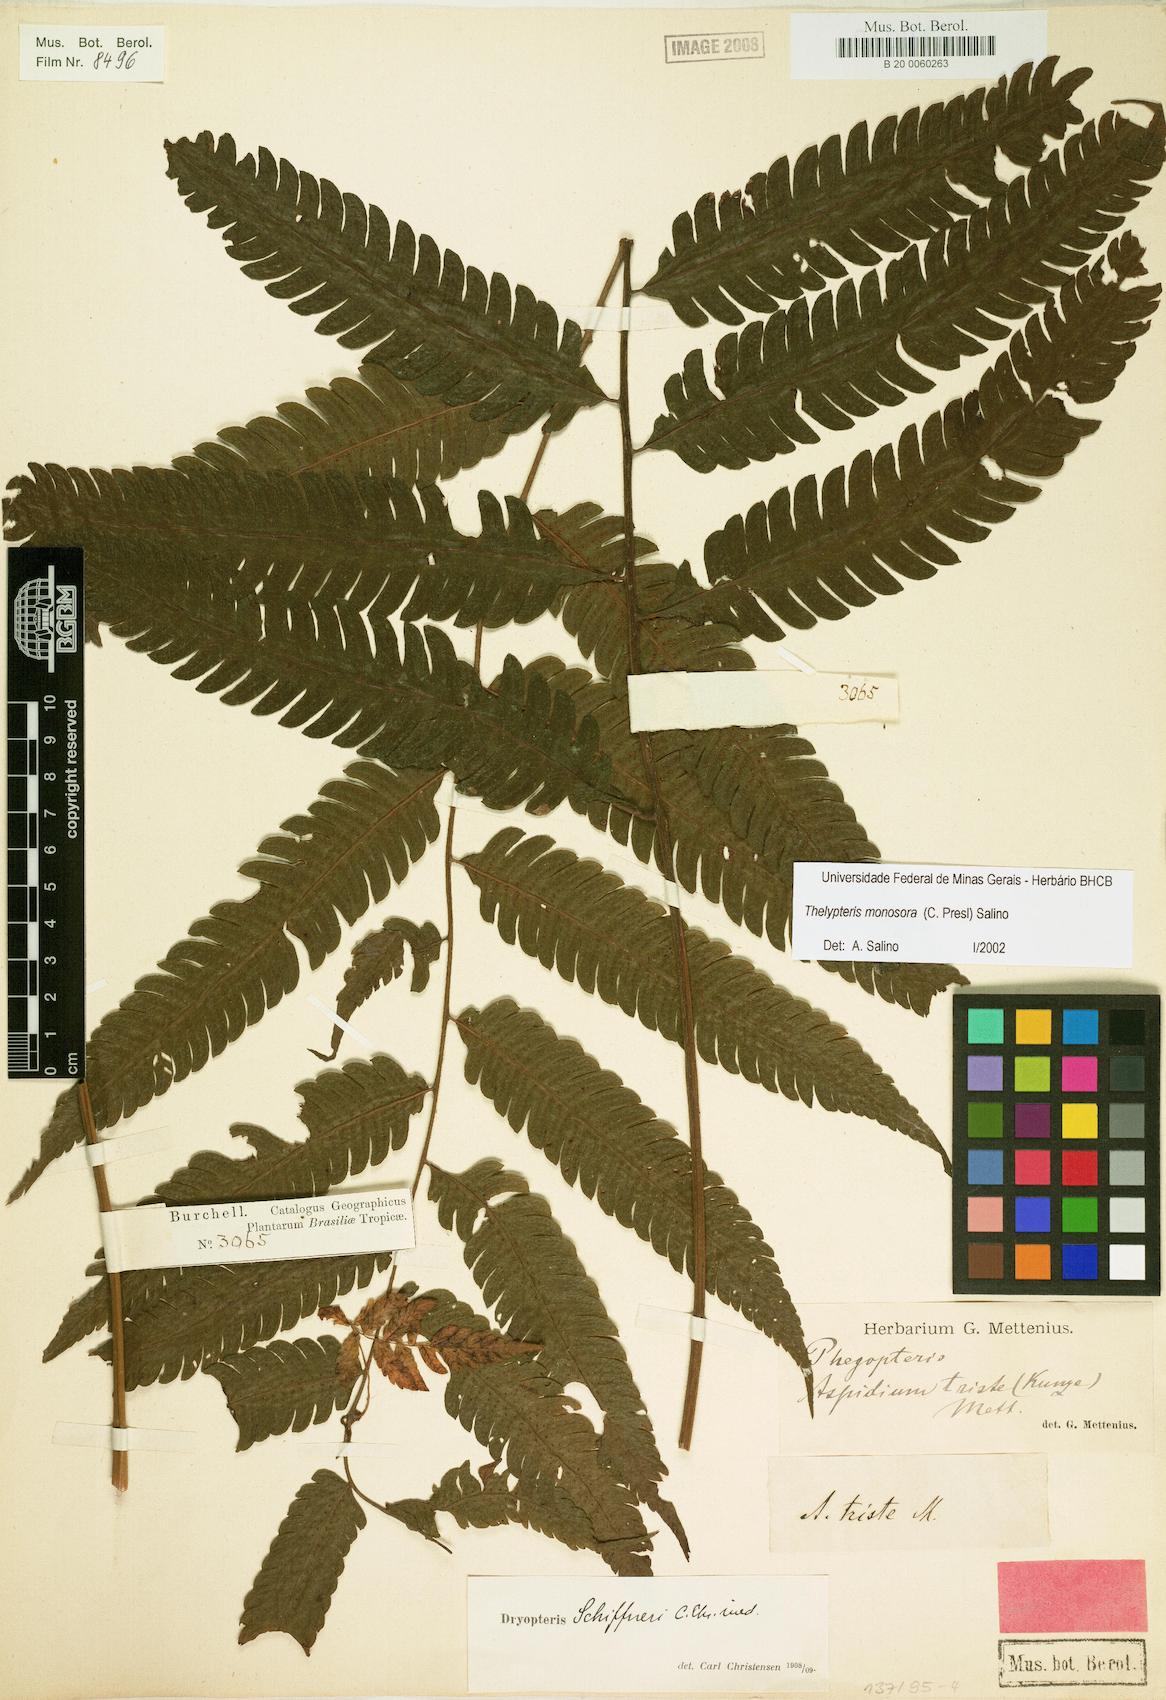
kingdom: Plantae
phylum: Tracheophyta
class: Polypodiopsida
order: Polypodiales
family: Thelypteridaceae
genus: Goniopteris
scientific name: Goniopteris monosora
